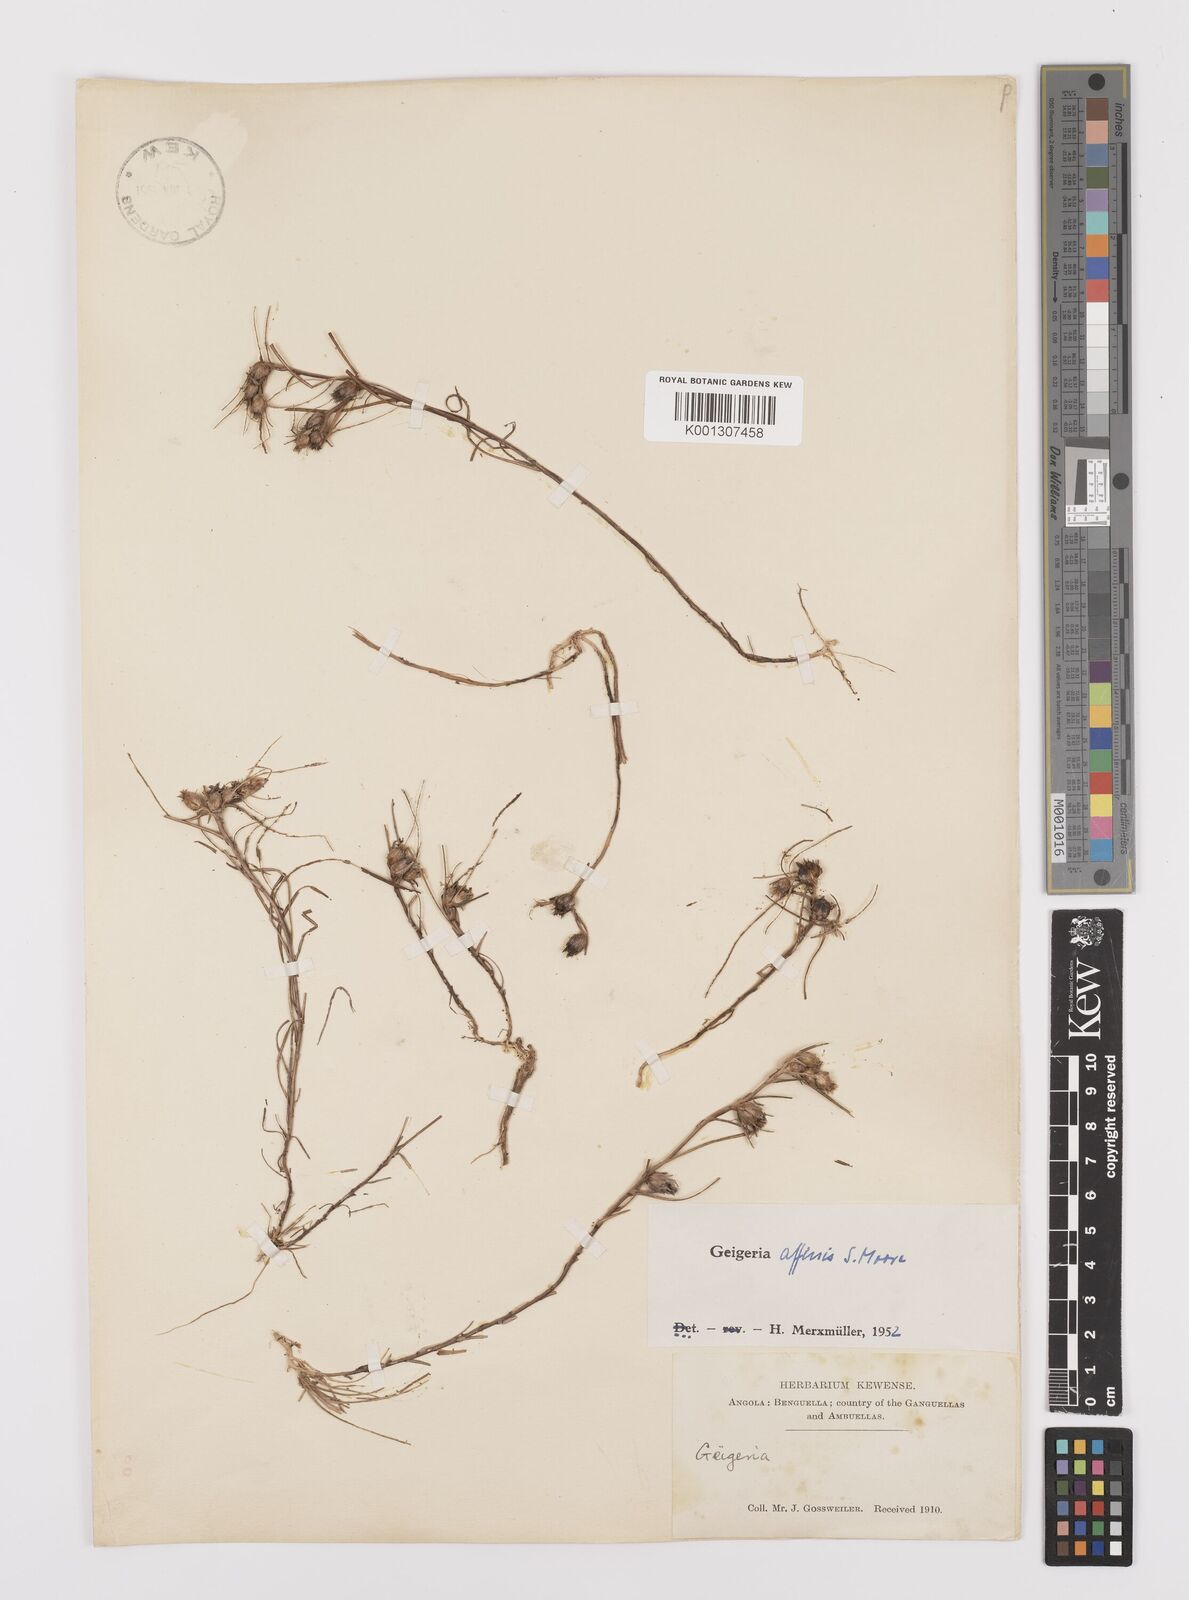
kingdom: Plantae
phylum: Tracheophyta
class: Magnoliopsida
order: Asterales
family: Asteraceae
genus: Geigeria
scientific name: Geigeria affinis
